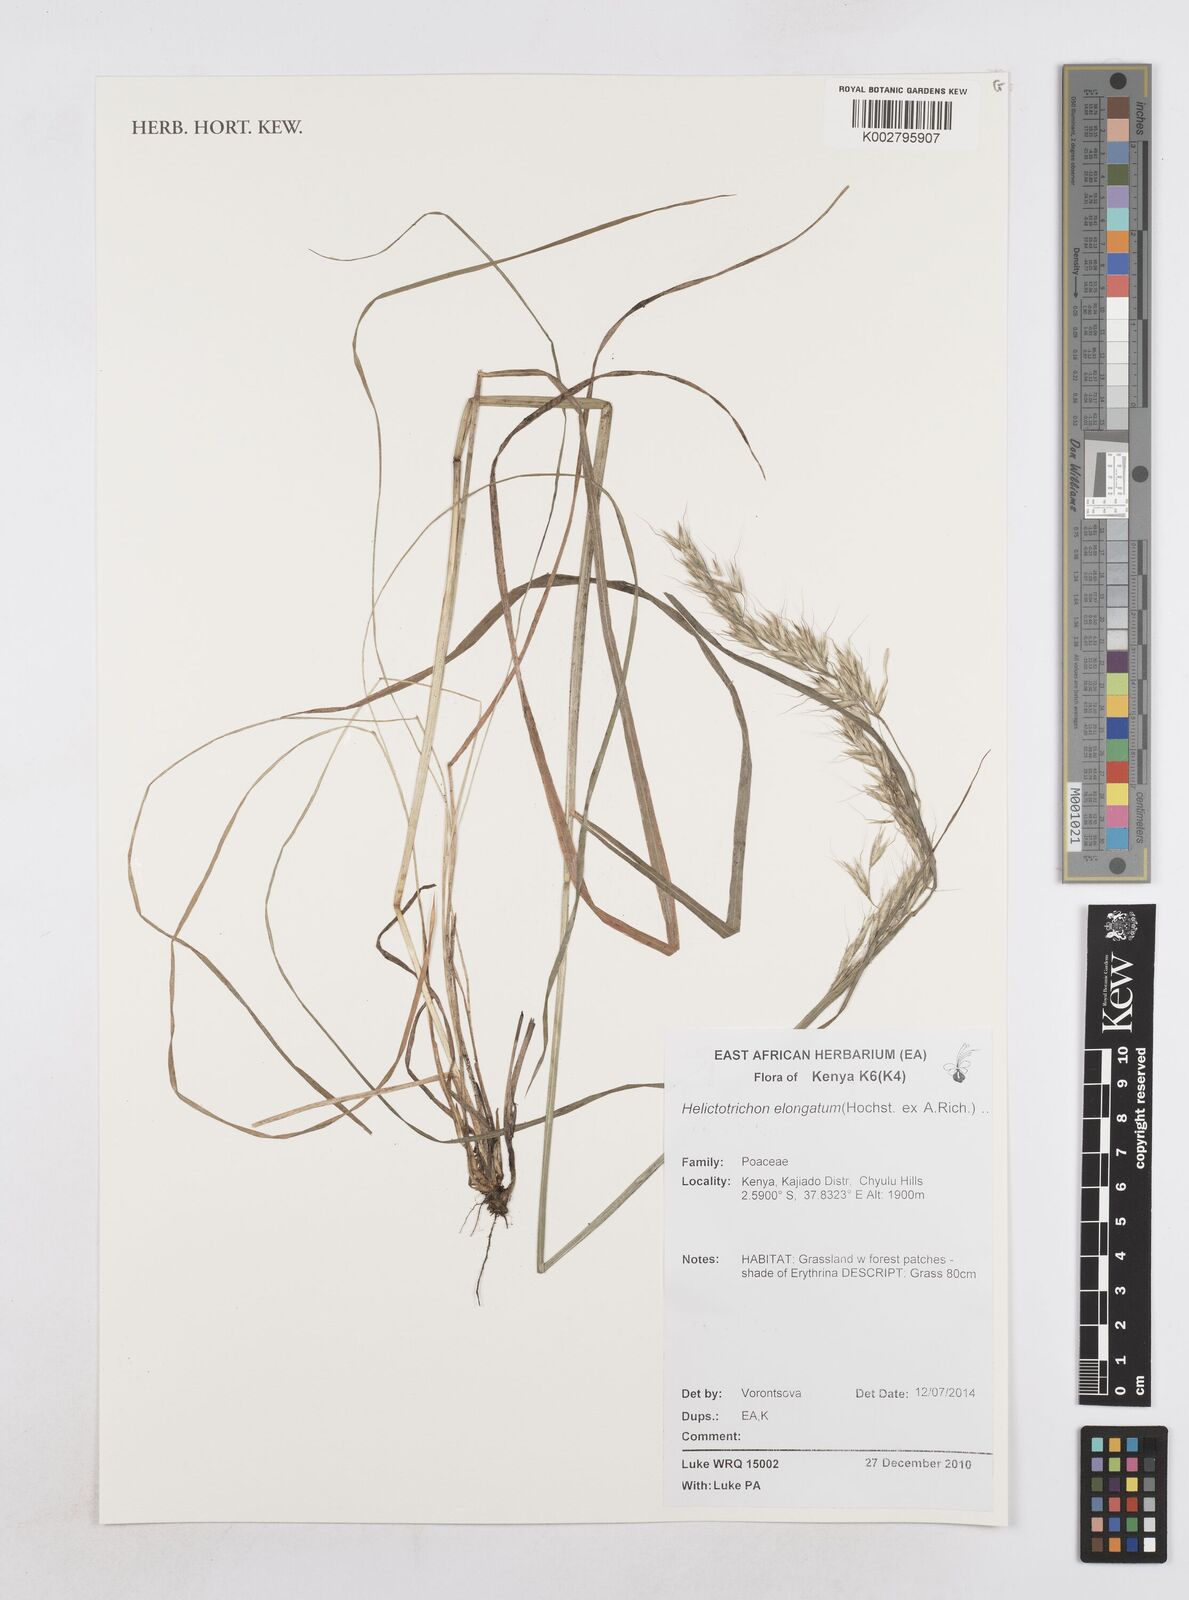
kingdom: Plantae
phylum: Tracheophyta
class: Liliopsida
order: Poales
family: Poaceae
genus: Trisetopsis
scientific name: Trisetopsis elongata
